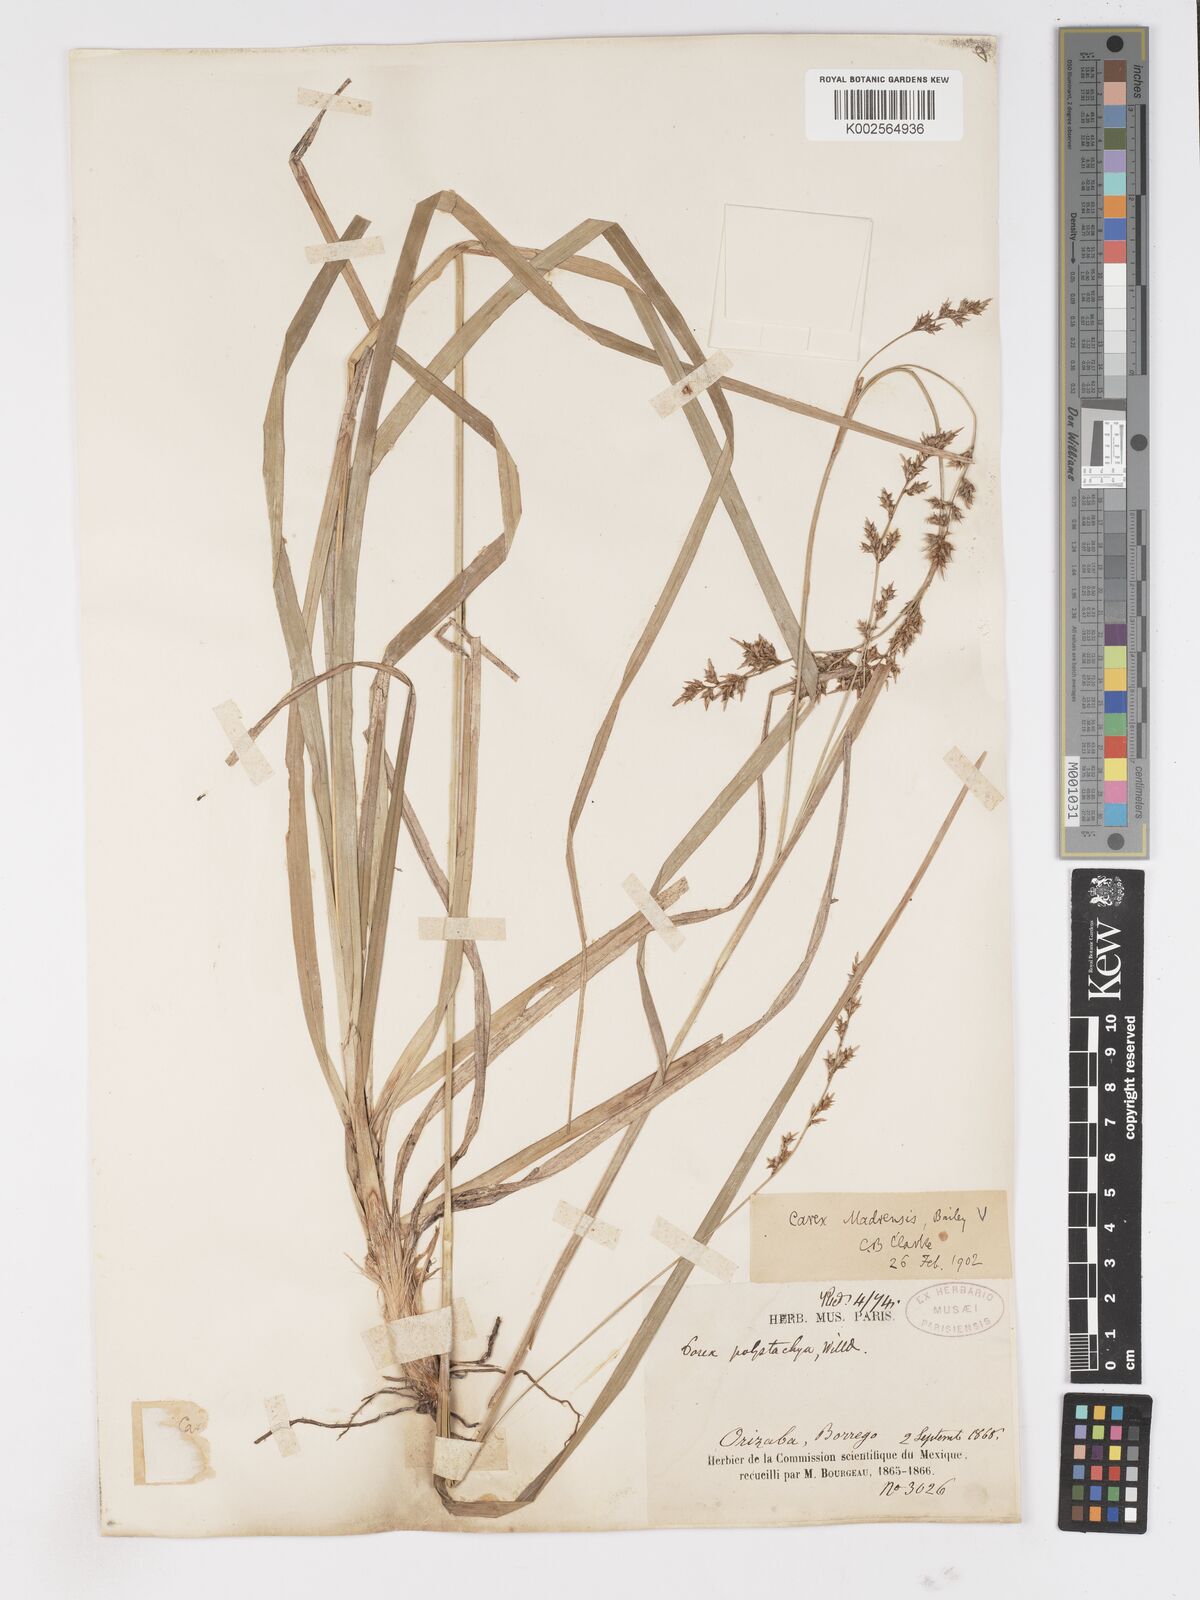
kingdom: Plantae
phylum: Tracheophyta
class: Liliopsida
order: Poales
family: Cyperaceae
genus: Carex
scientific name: Carex madrensis
